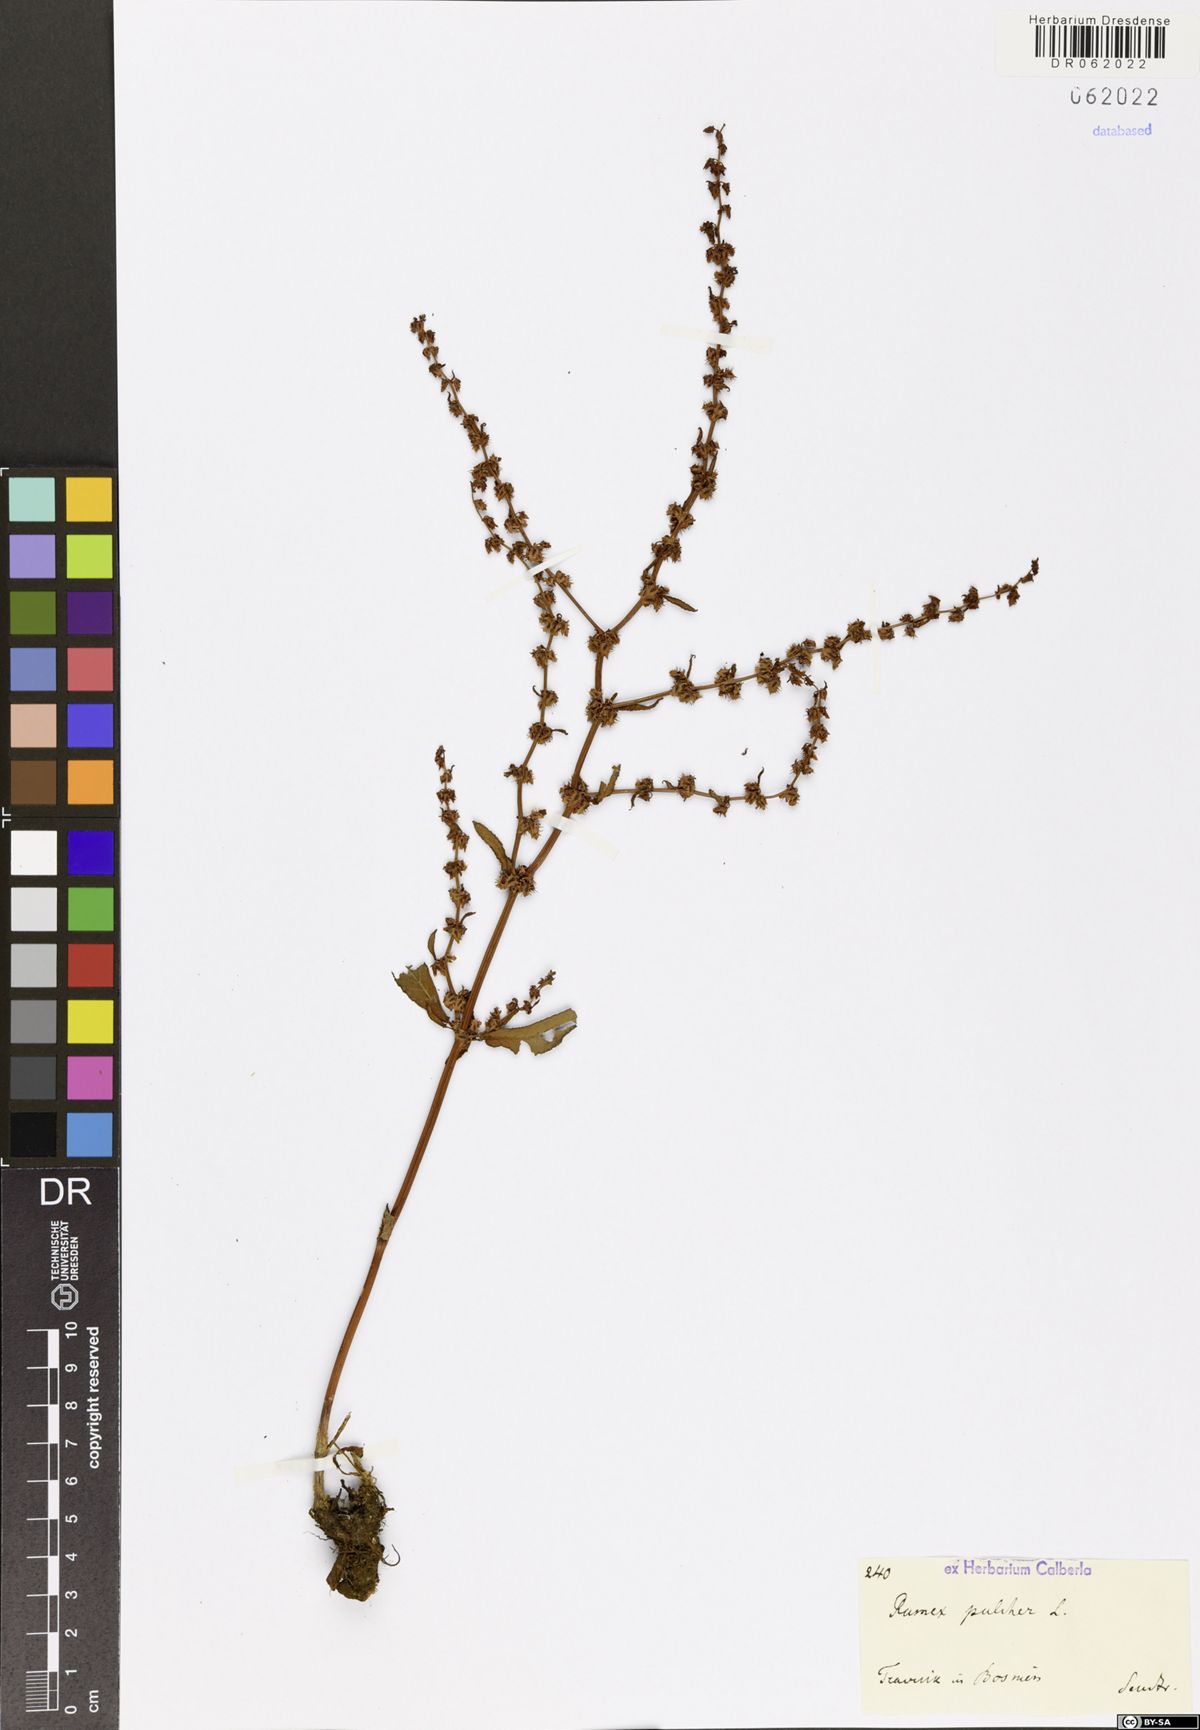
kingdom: Plantae
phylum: Tracheophyta
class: Magnoliopsida
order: Caryophyllales
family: Polygonaceae
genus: Rumex
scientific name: Rumex pulcher
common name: Fiddle dock
